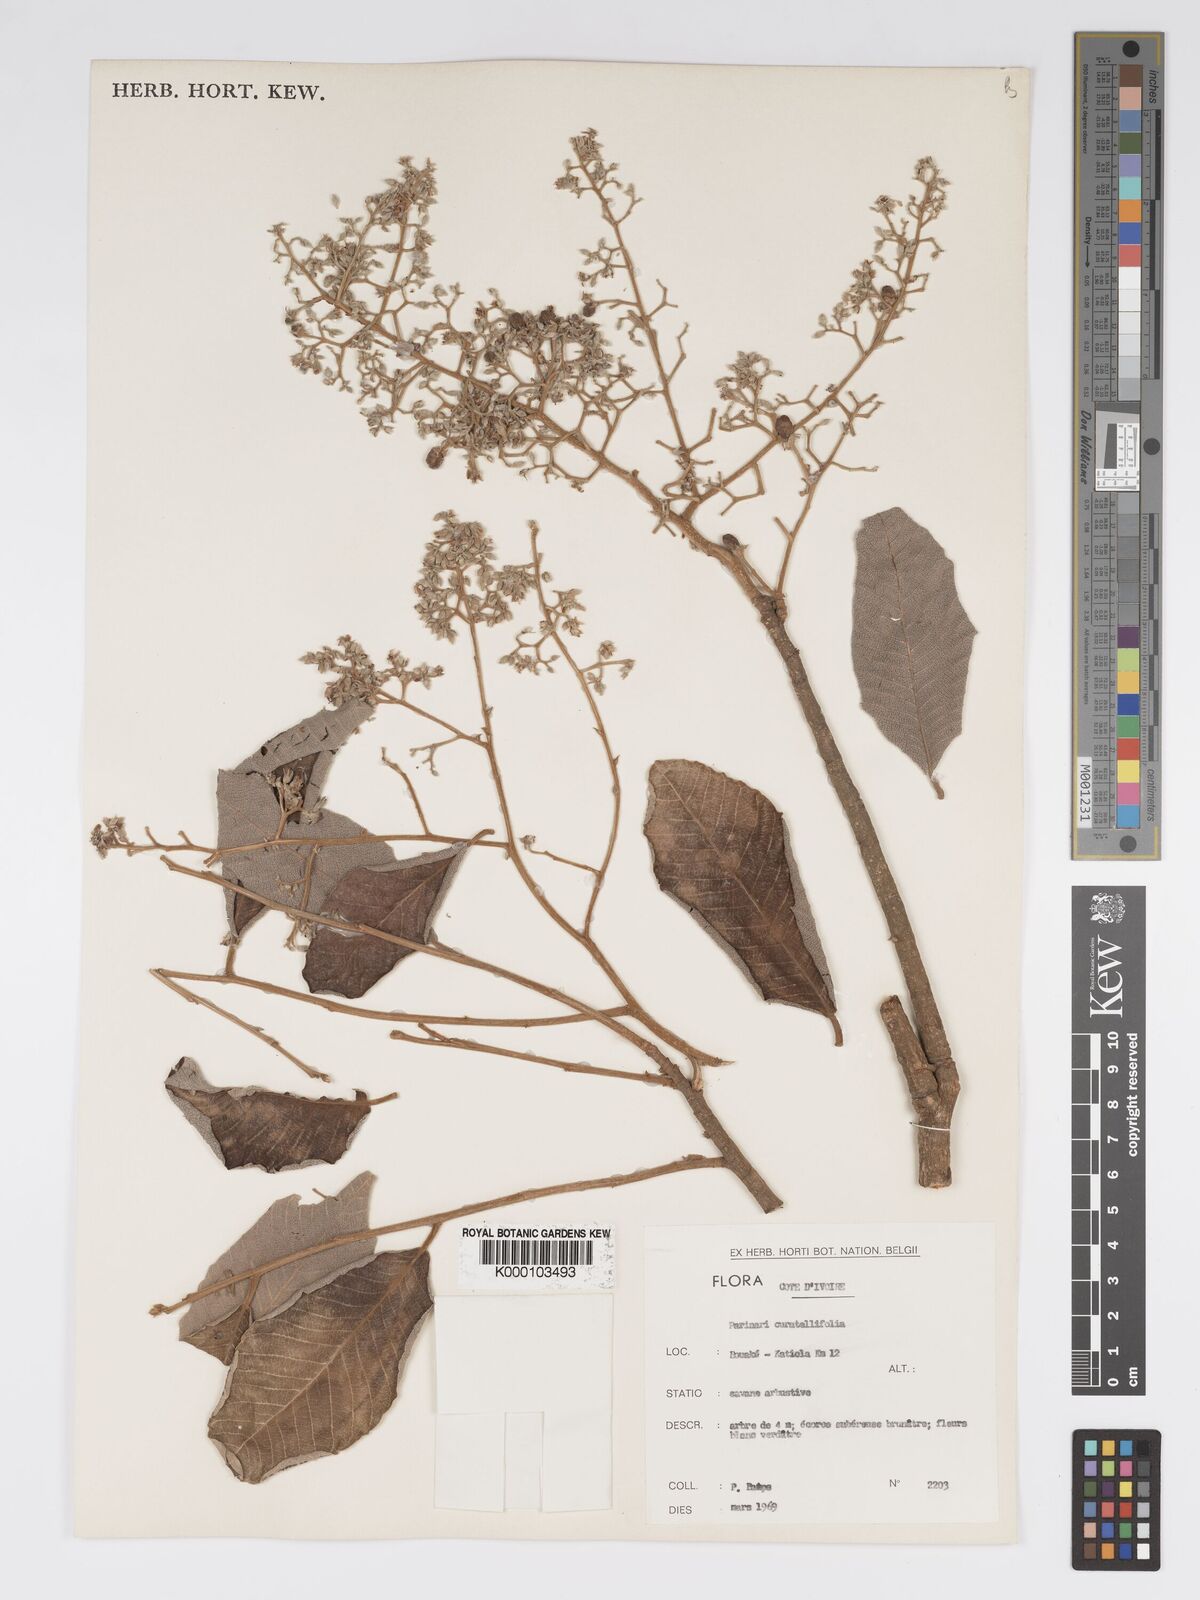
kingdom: Plantae
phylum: Tracheophyta
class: Magnoliopsida
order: Malpighiales
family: Chrysobalanaceae
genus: Parinari
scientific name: Parinari curatellifolia
